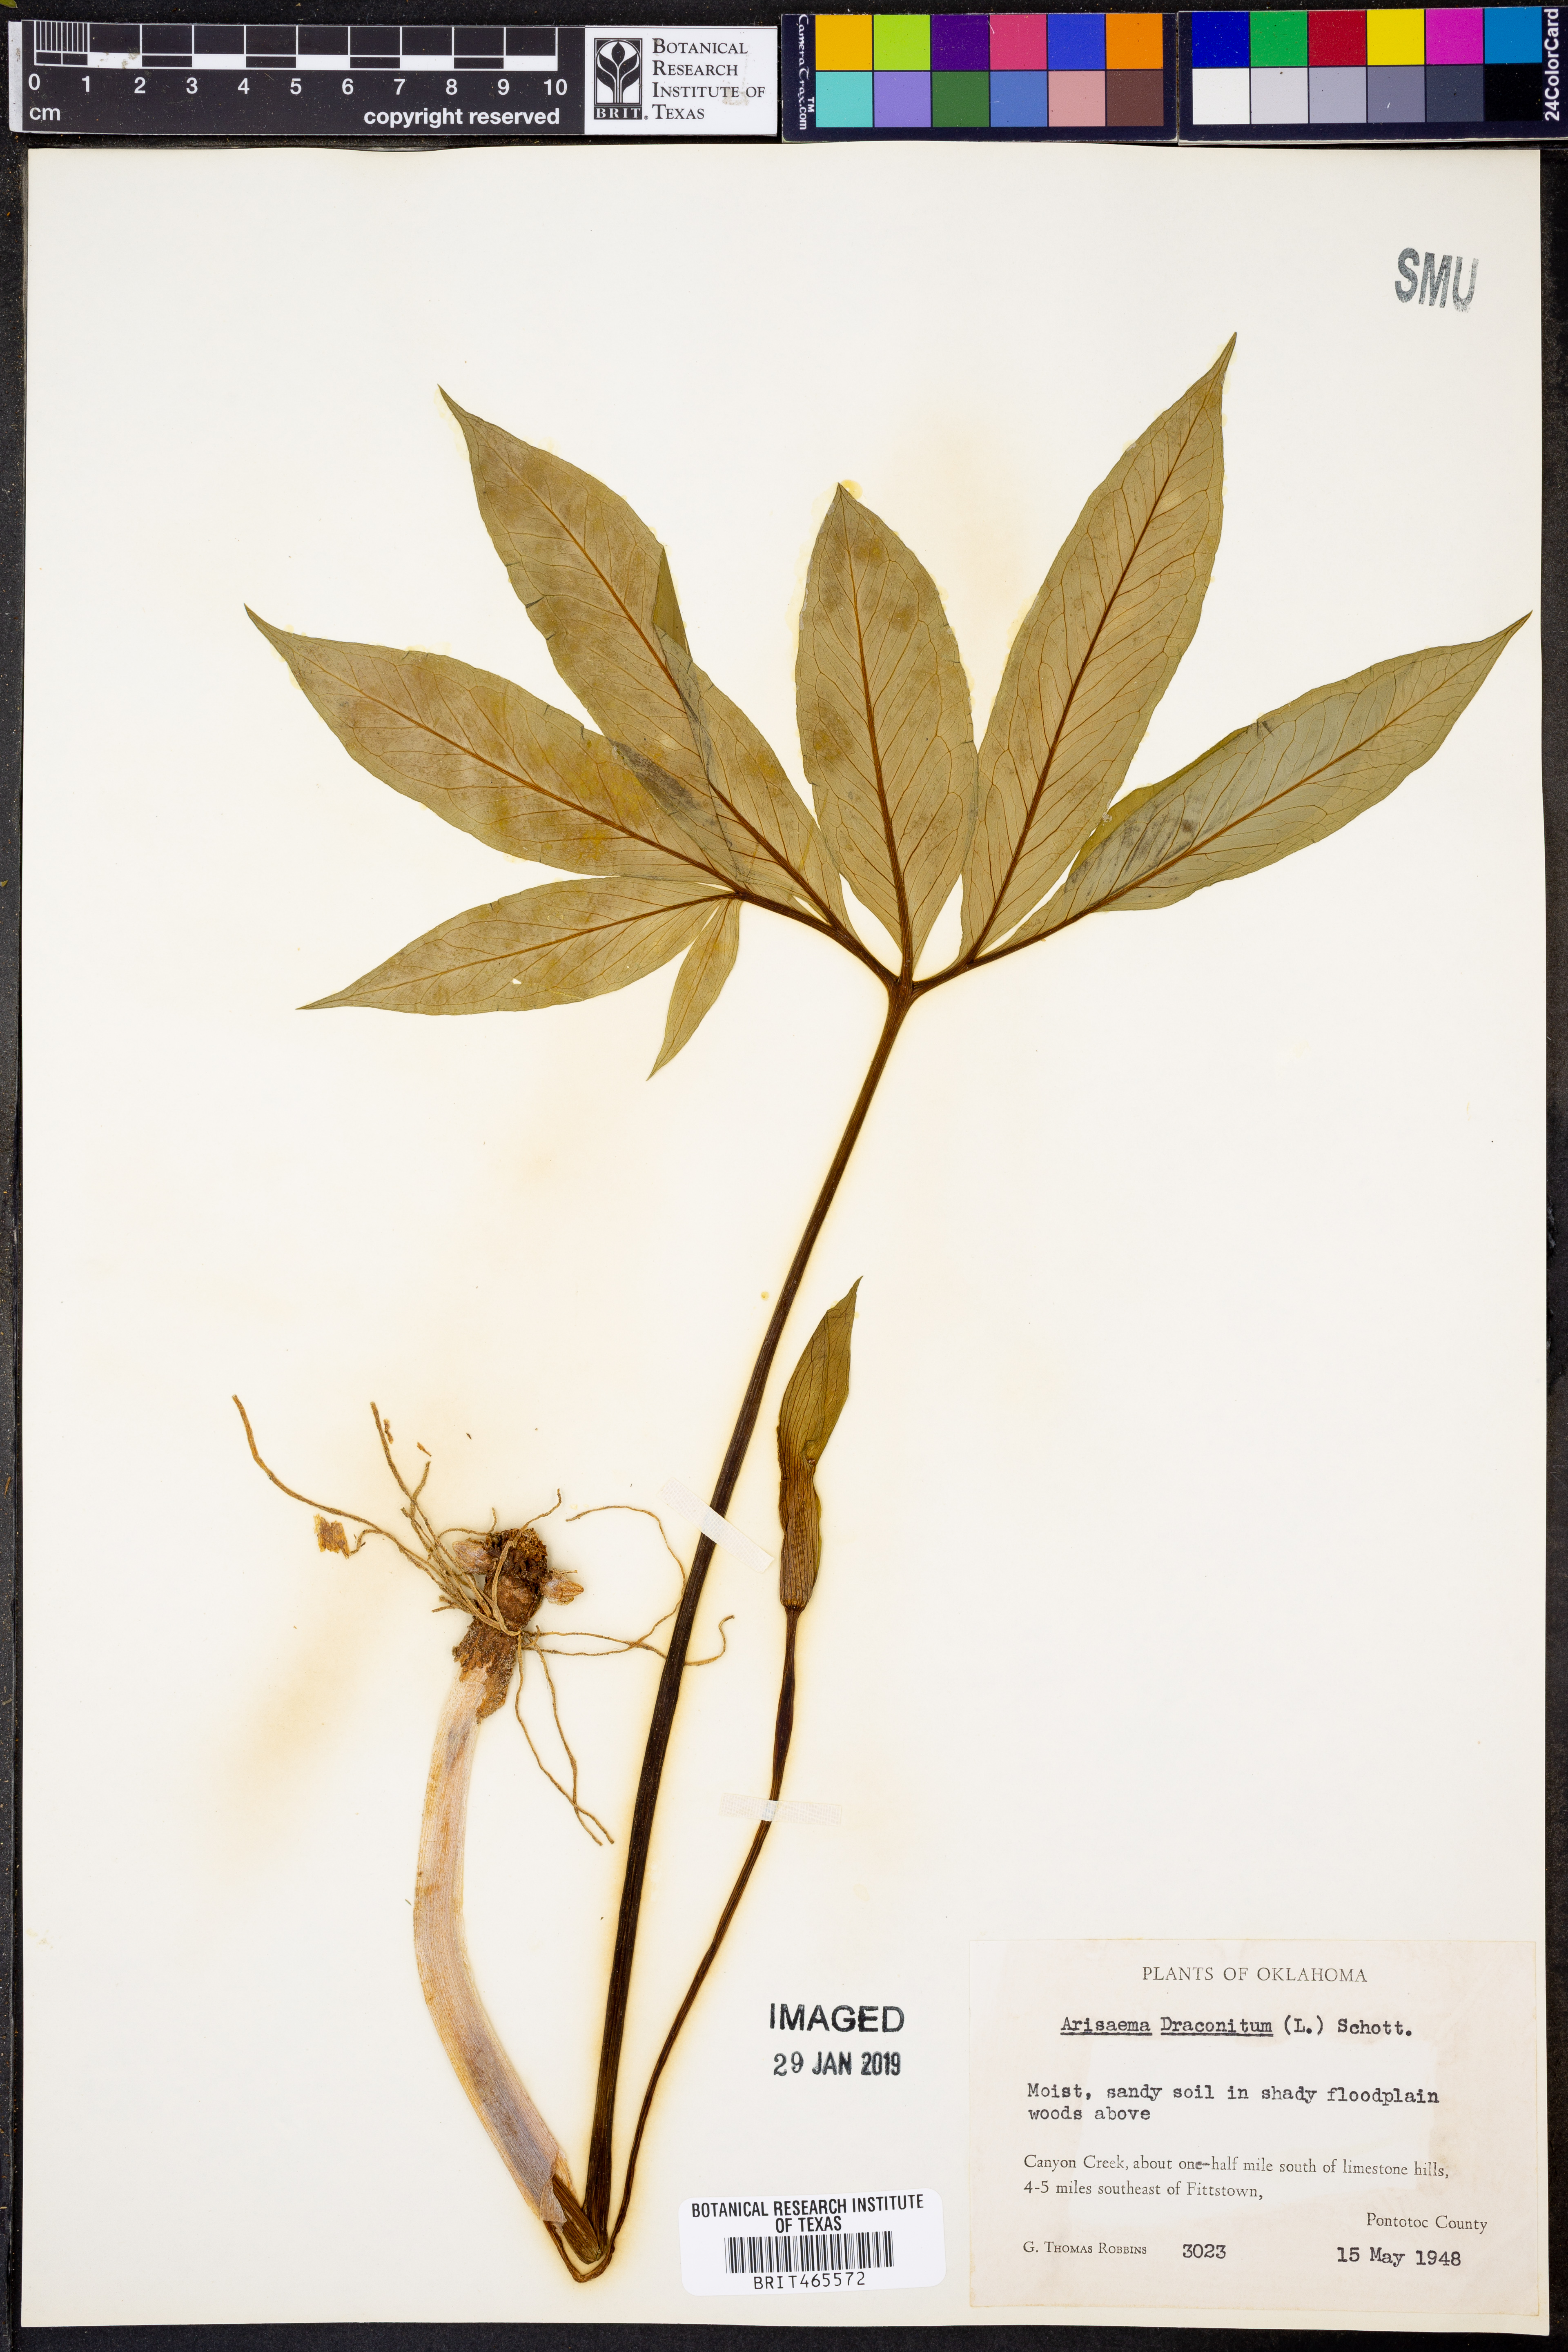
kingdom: Plantae
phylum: Tracheophyta
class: Liliopsida
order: Alismatales
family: Araceae
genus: Arisaema
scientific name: Arisaema dracontium
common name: Dragon-arum
